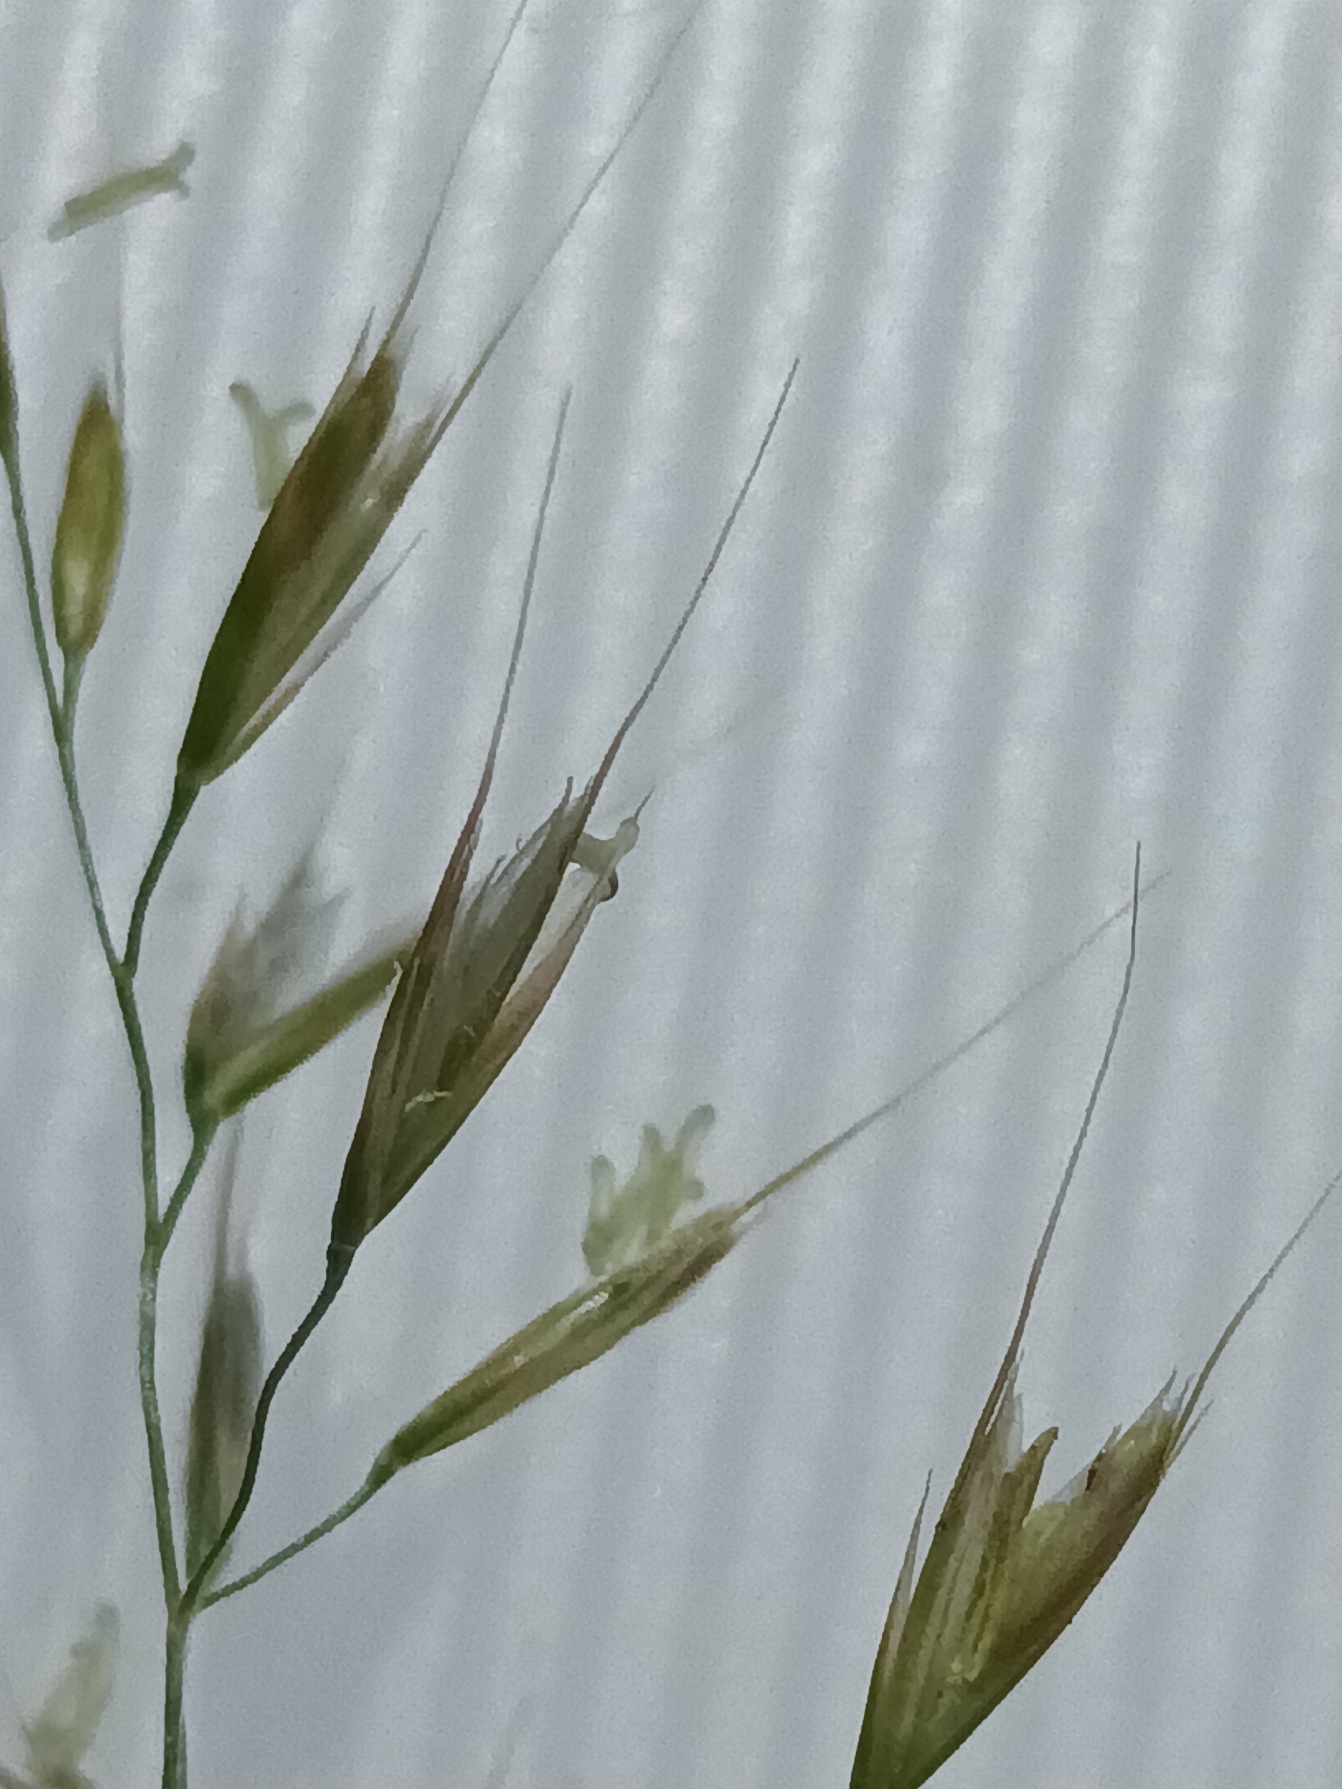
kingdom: Plantae
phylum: Tracheophyta
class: Liliopsida
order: Poales
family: Poaceae
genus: Trisetum
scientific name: Trisetum flavescens
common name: Guldhavre
